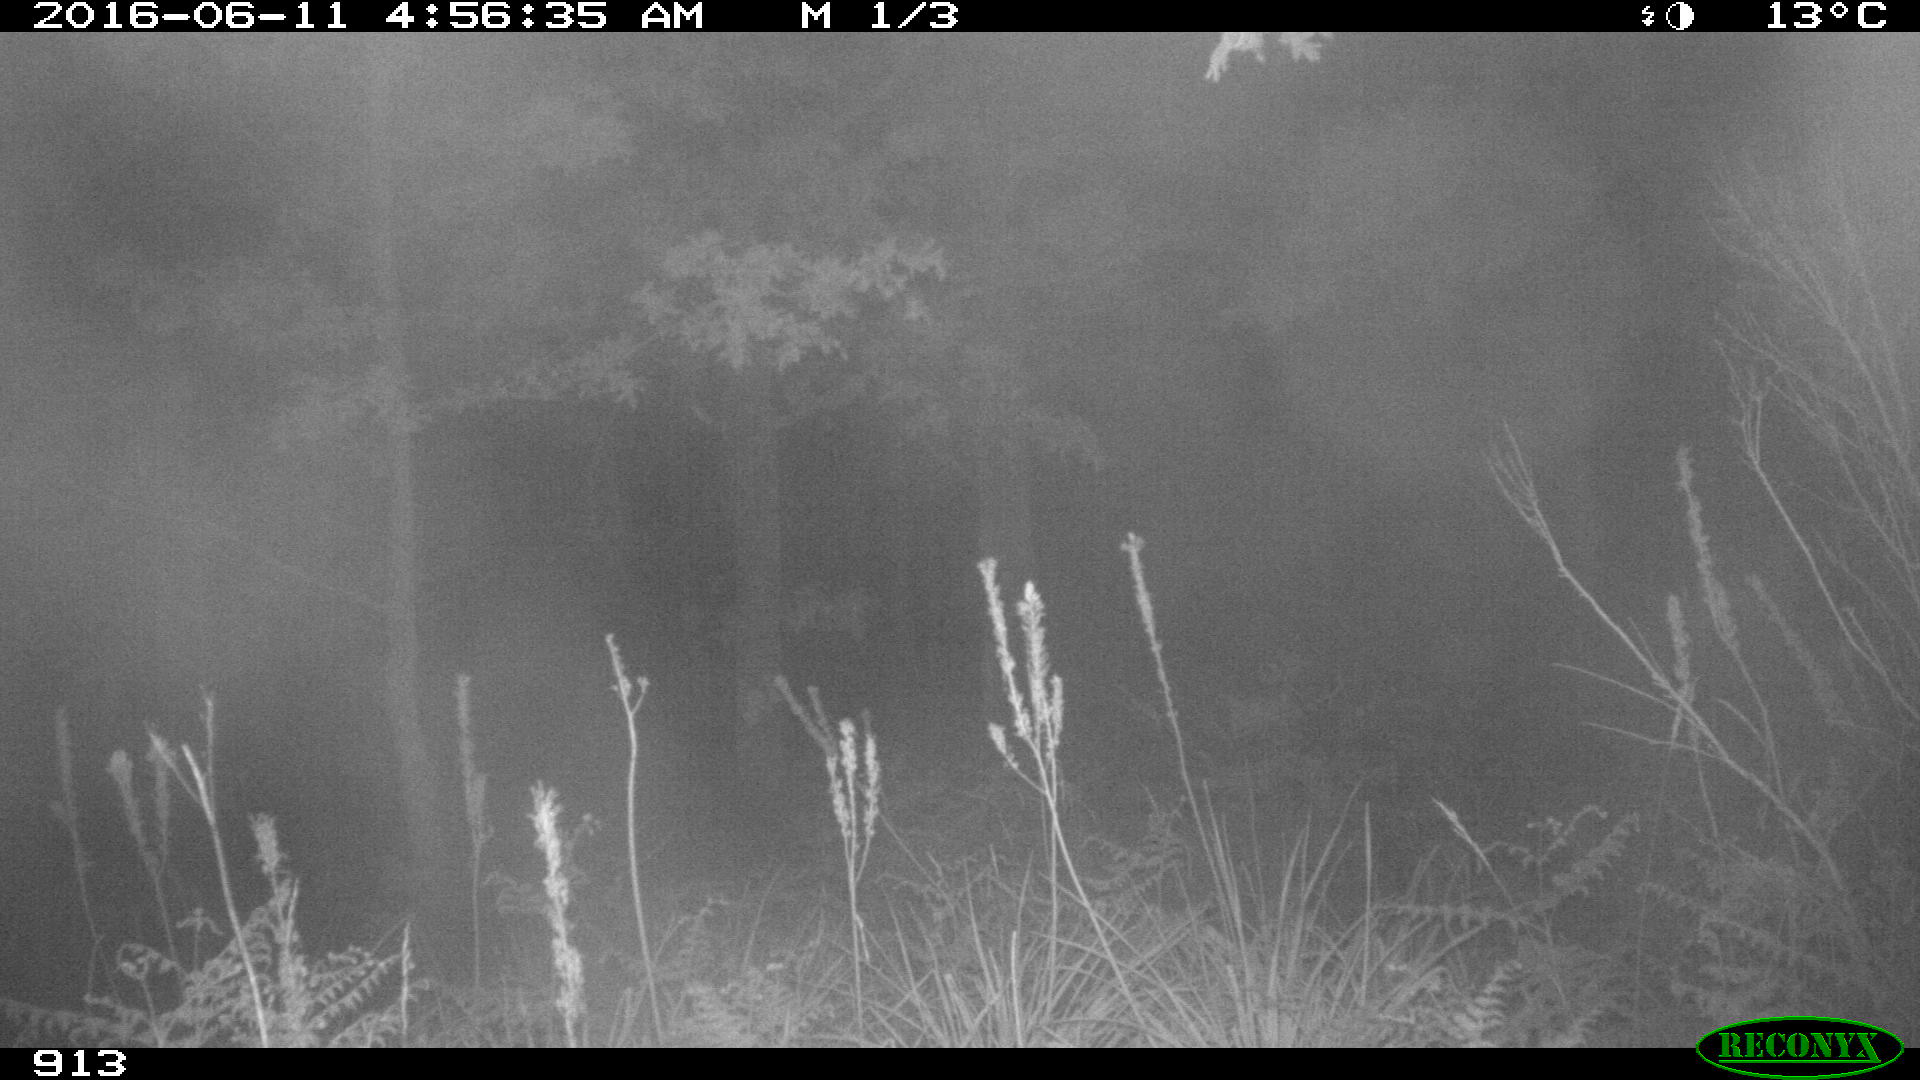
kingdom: Animalia
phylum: Chordata
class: Mammalia
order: Artiodactyla
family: Bovidae
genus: Bos
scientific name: Bos taurus
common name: Domesticated cattle
